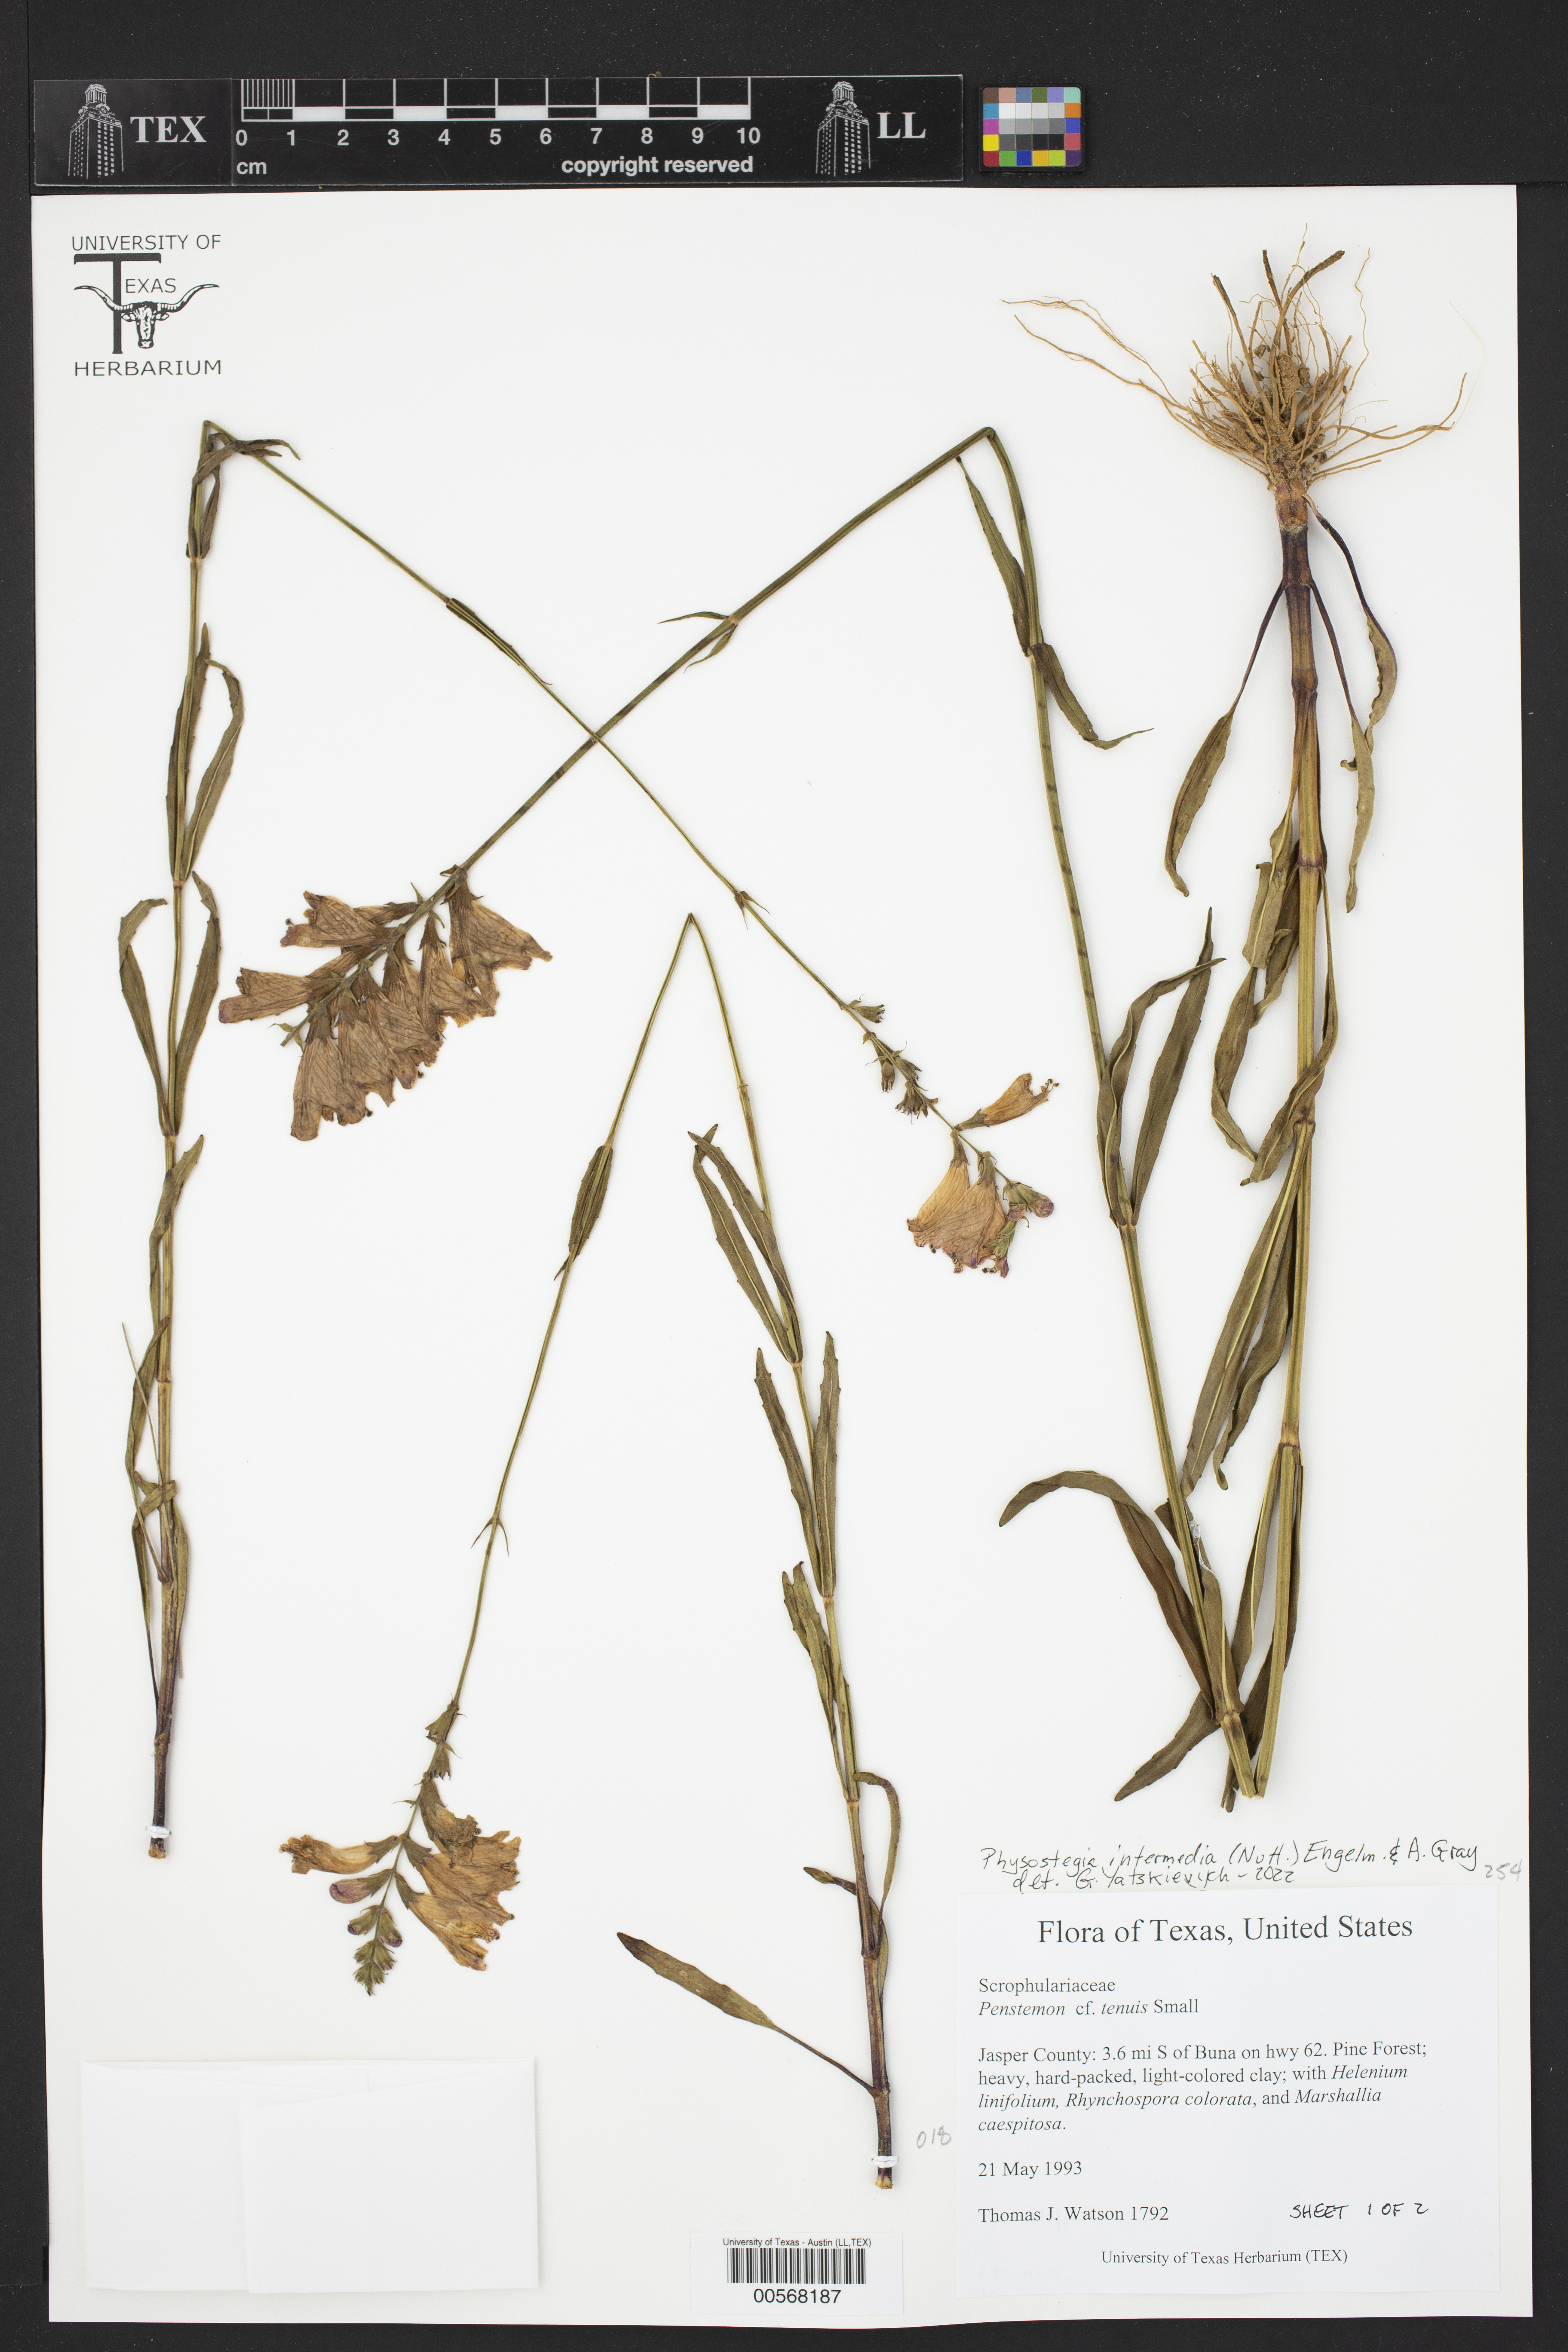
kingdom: Plantae
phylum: Tracheophyta
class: Magnoliopsida
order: Lamiales
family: Plantaginaceae
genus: Penstemon
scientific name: Penstemon tenuis
